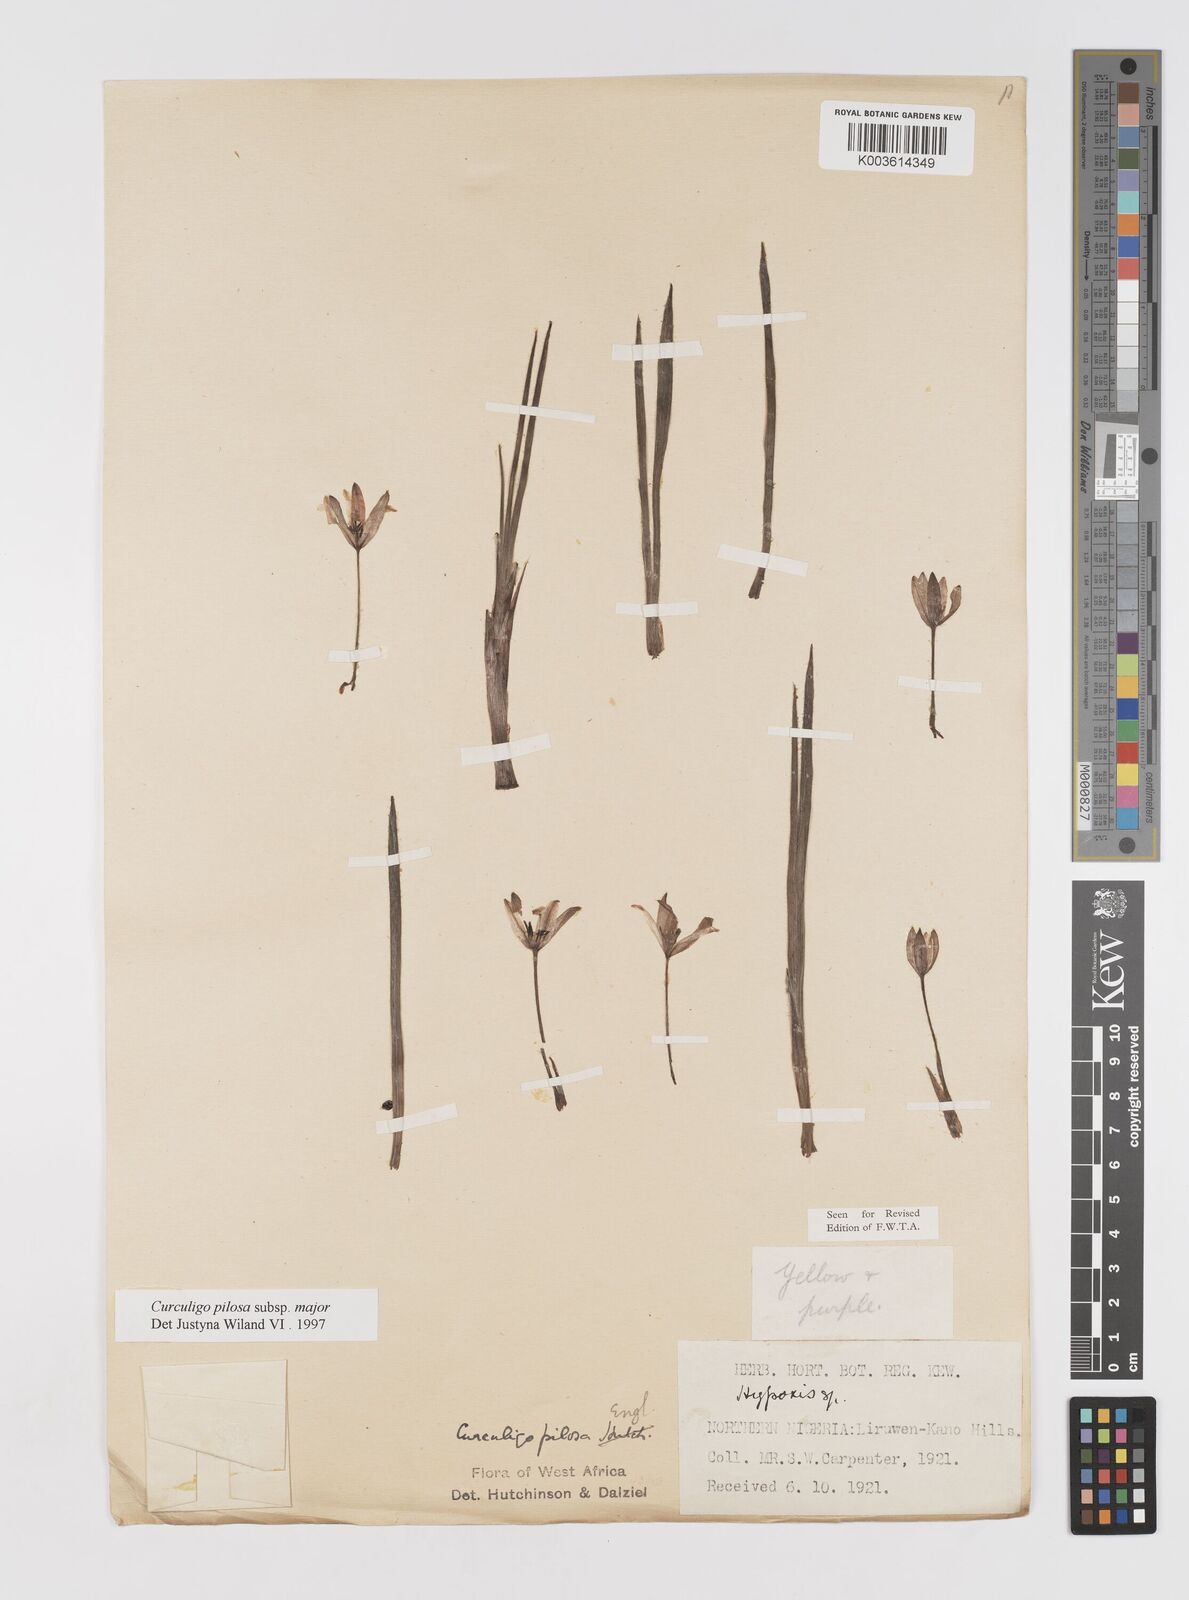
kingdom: Plantae
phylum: Tracheophyta
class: Liliopsida
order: Asparagales
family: Hypoxidaceae
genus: Curculigo
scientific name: Curculigo pilosa
